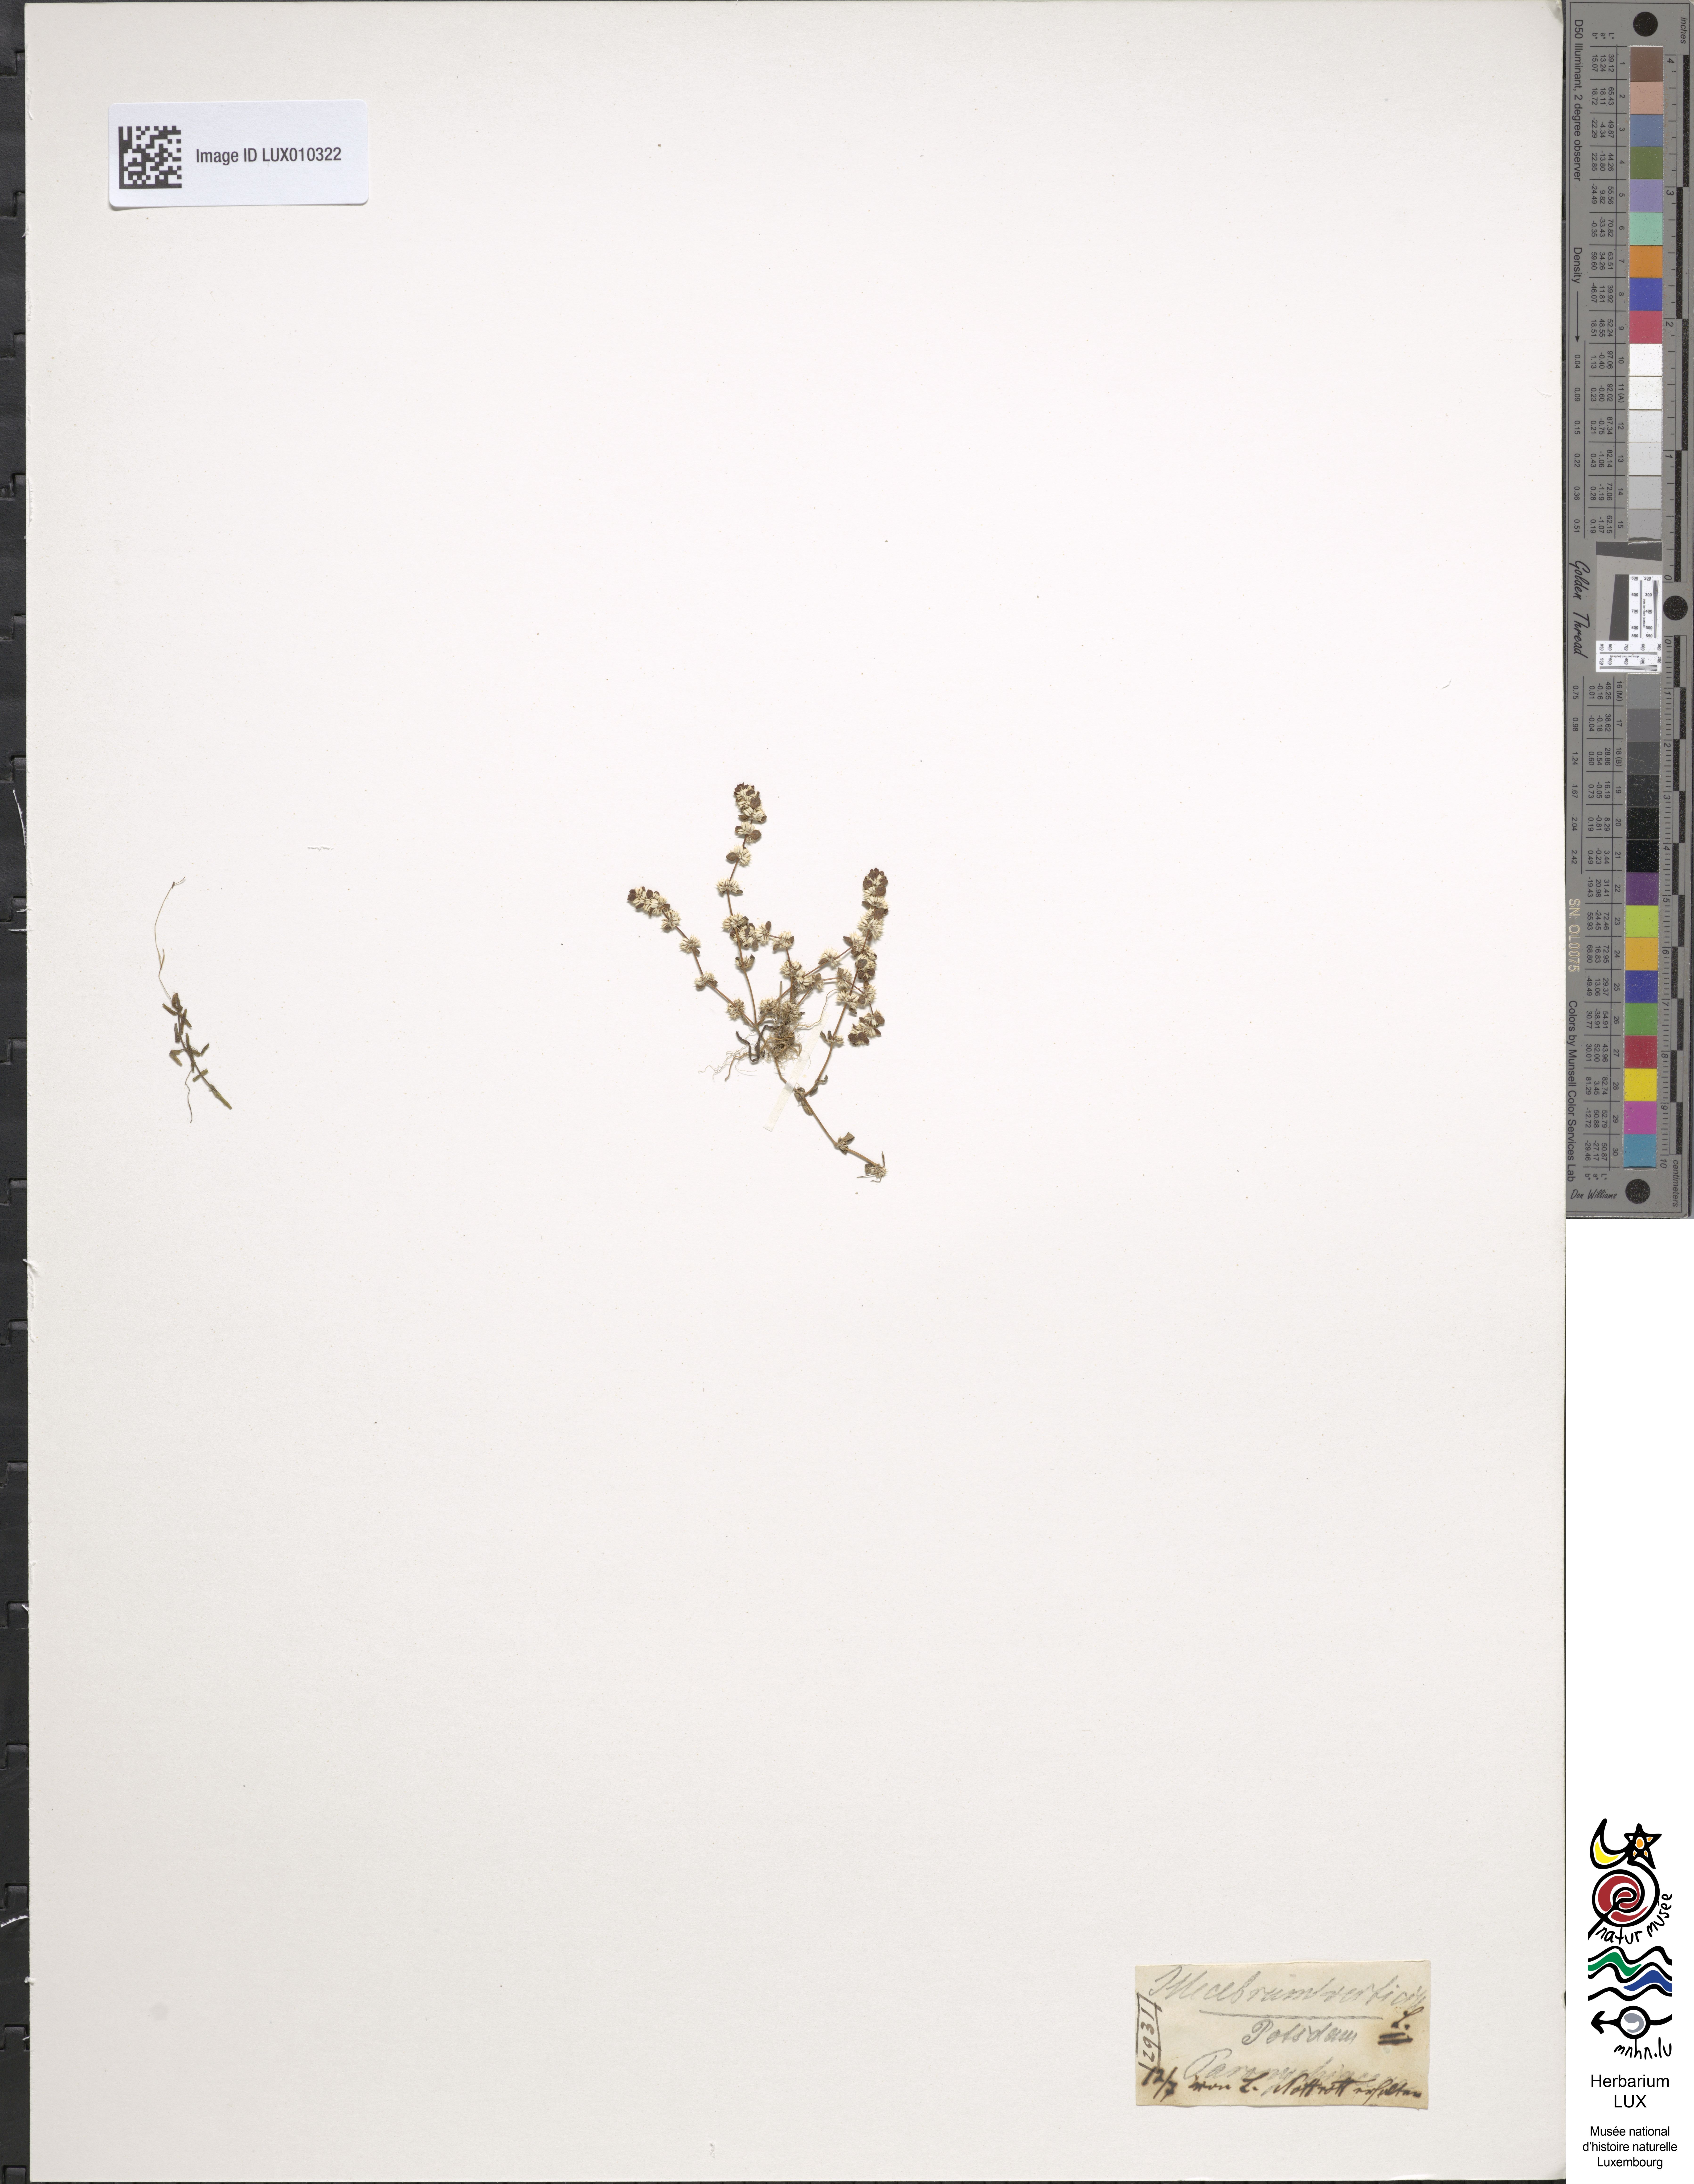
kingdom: Plantae
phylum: Tracheophyta
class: Magnoliopsida
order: Caryophyllales
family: Caryophyllaceae
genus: Illecebrum
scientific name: Illecebrum verticillatum
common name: Coral necklace
